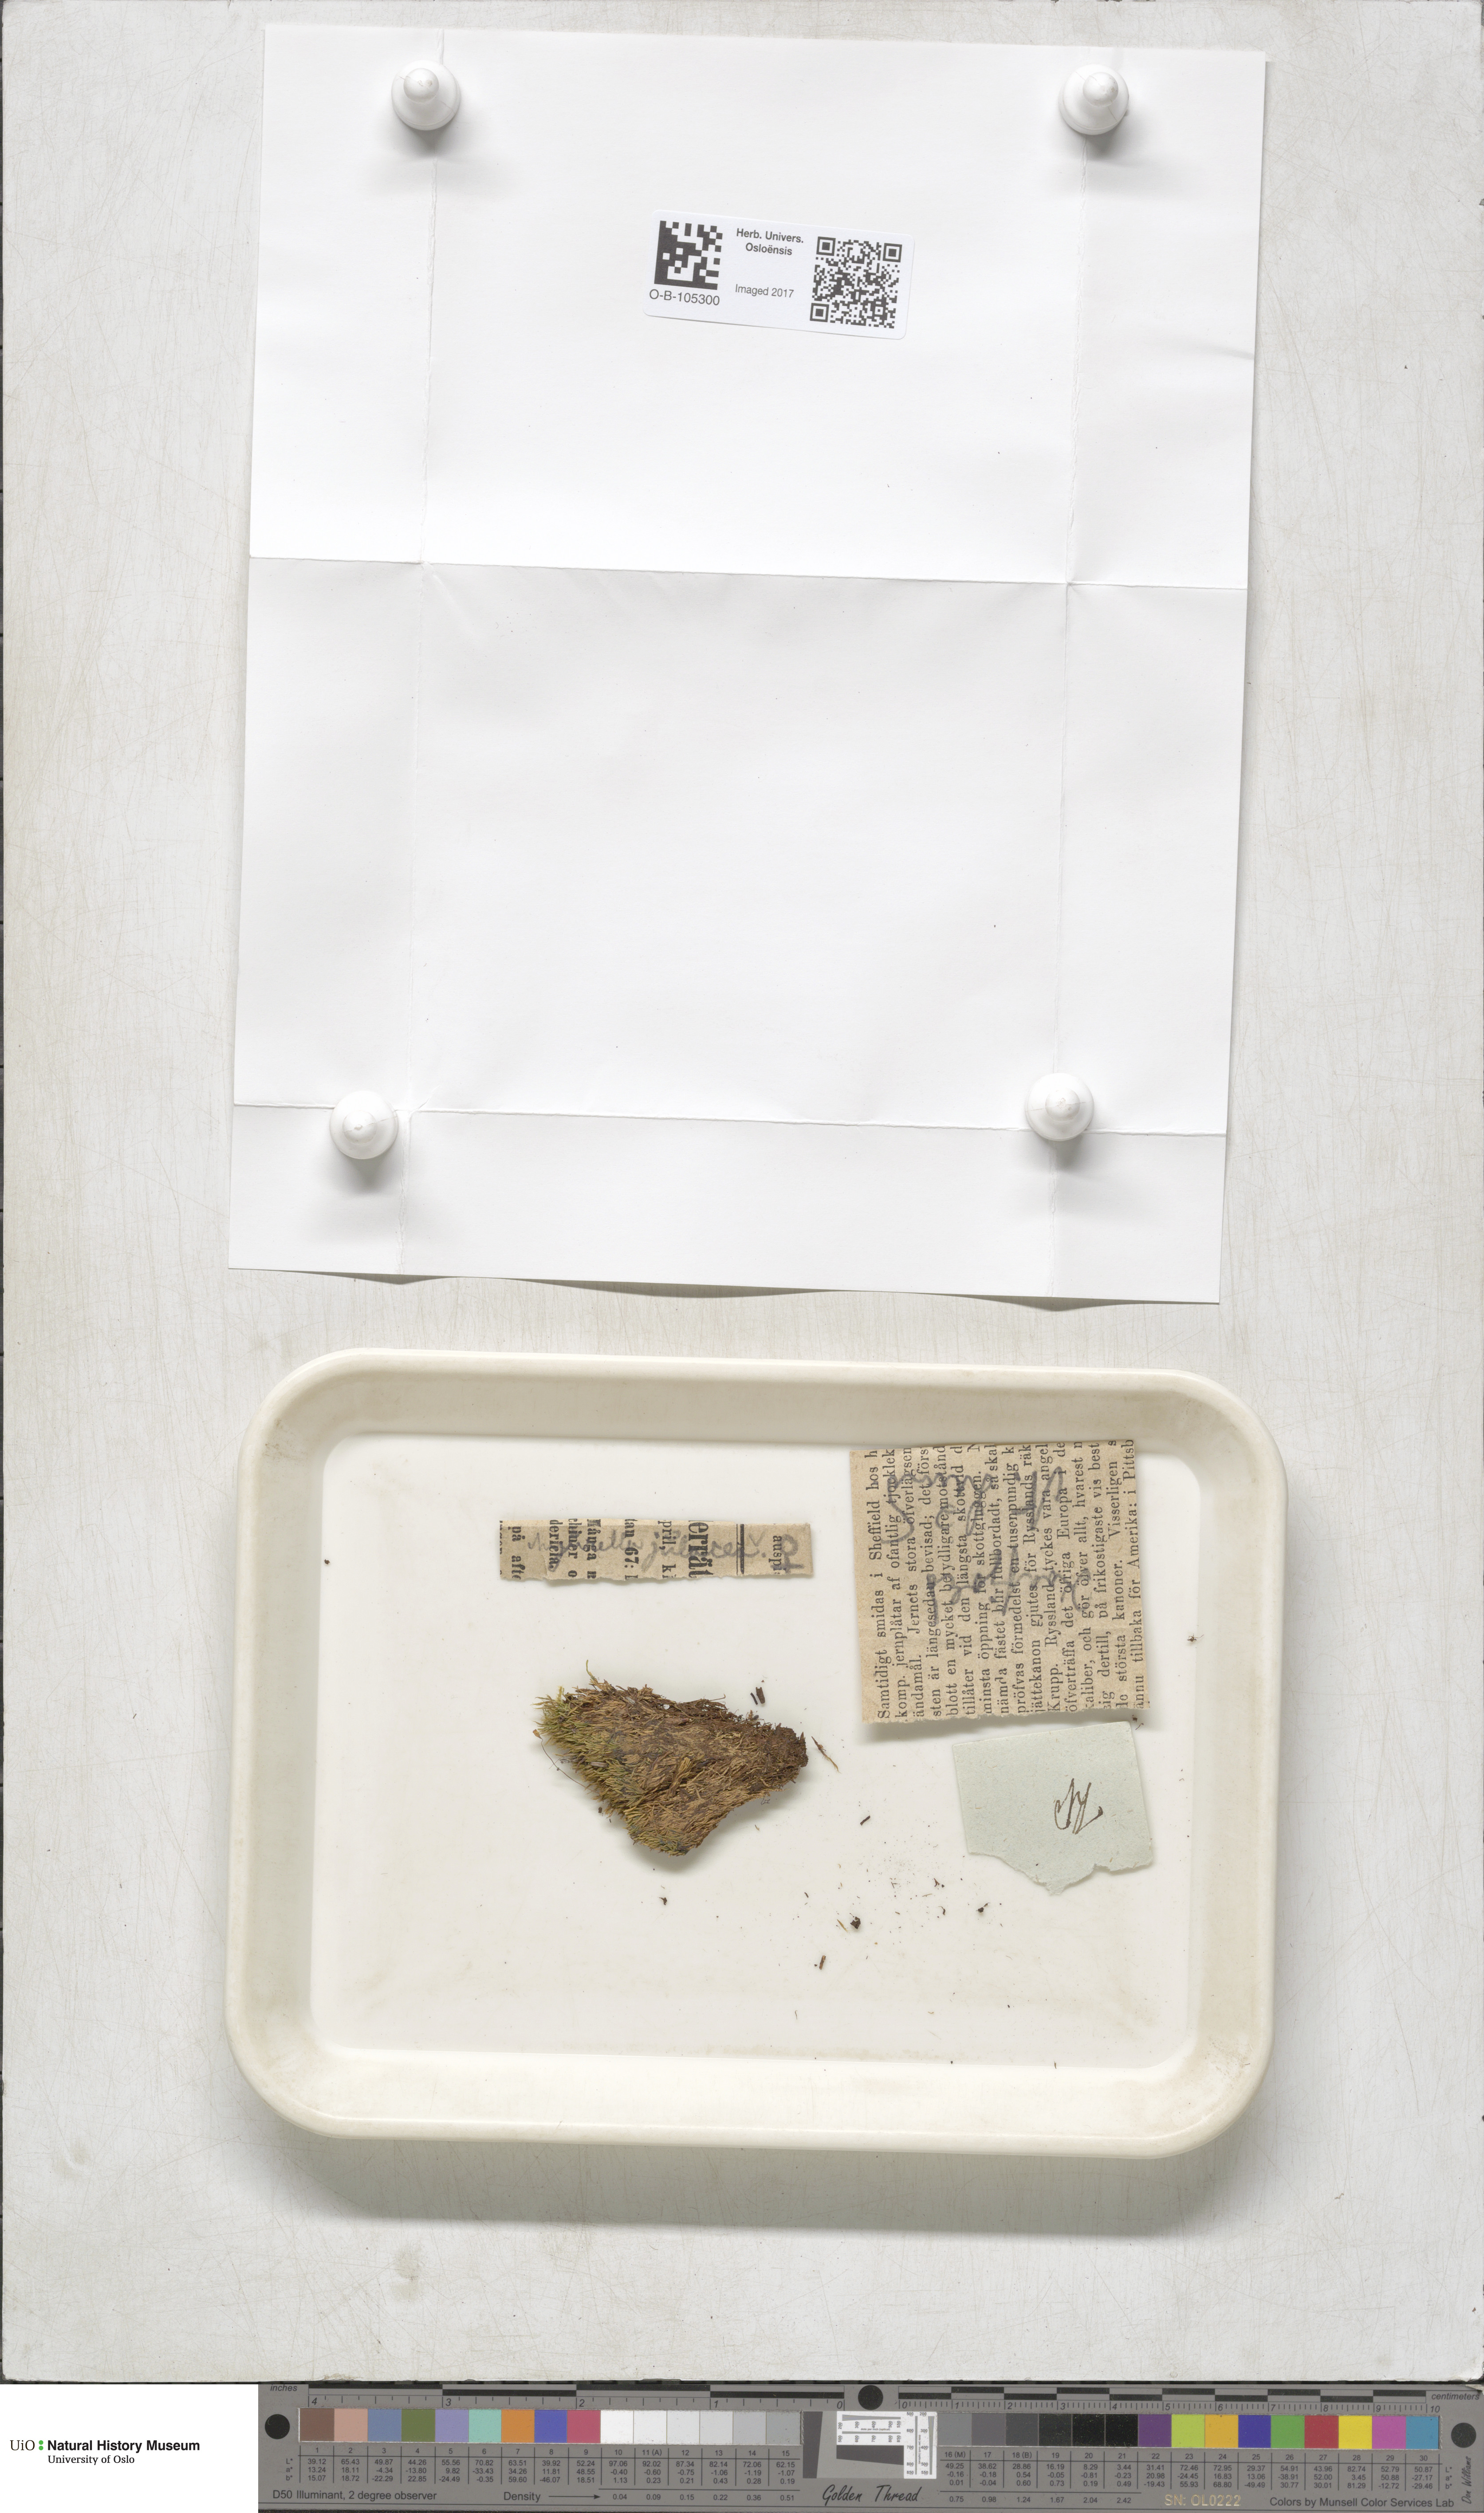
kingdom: Plantae
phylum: Bryophyta
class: Bryopsida
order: Hypnales
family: Plagiotheciaceae
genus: Myurella
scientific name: Myurella julacea
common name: Small mousetail moss
